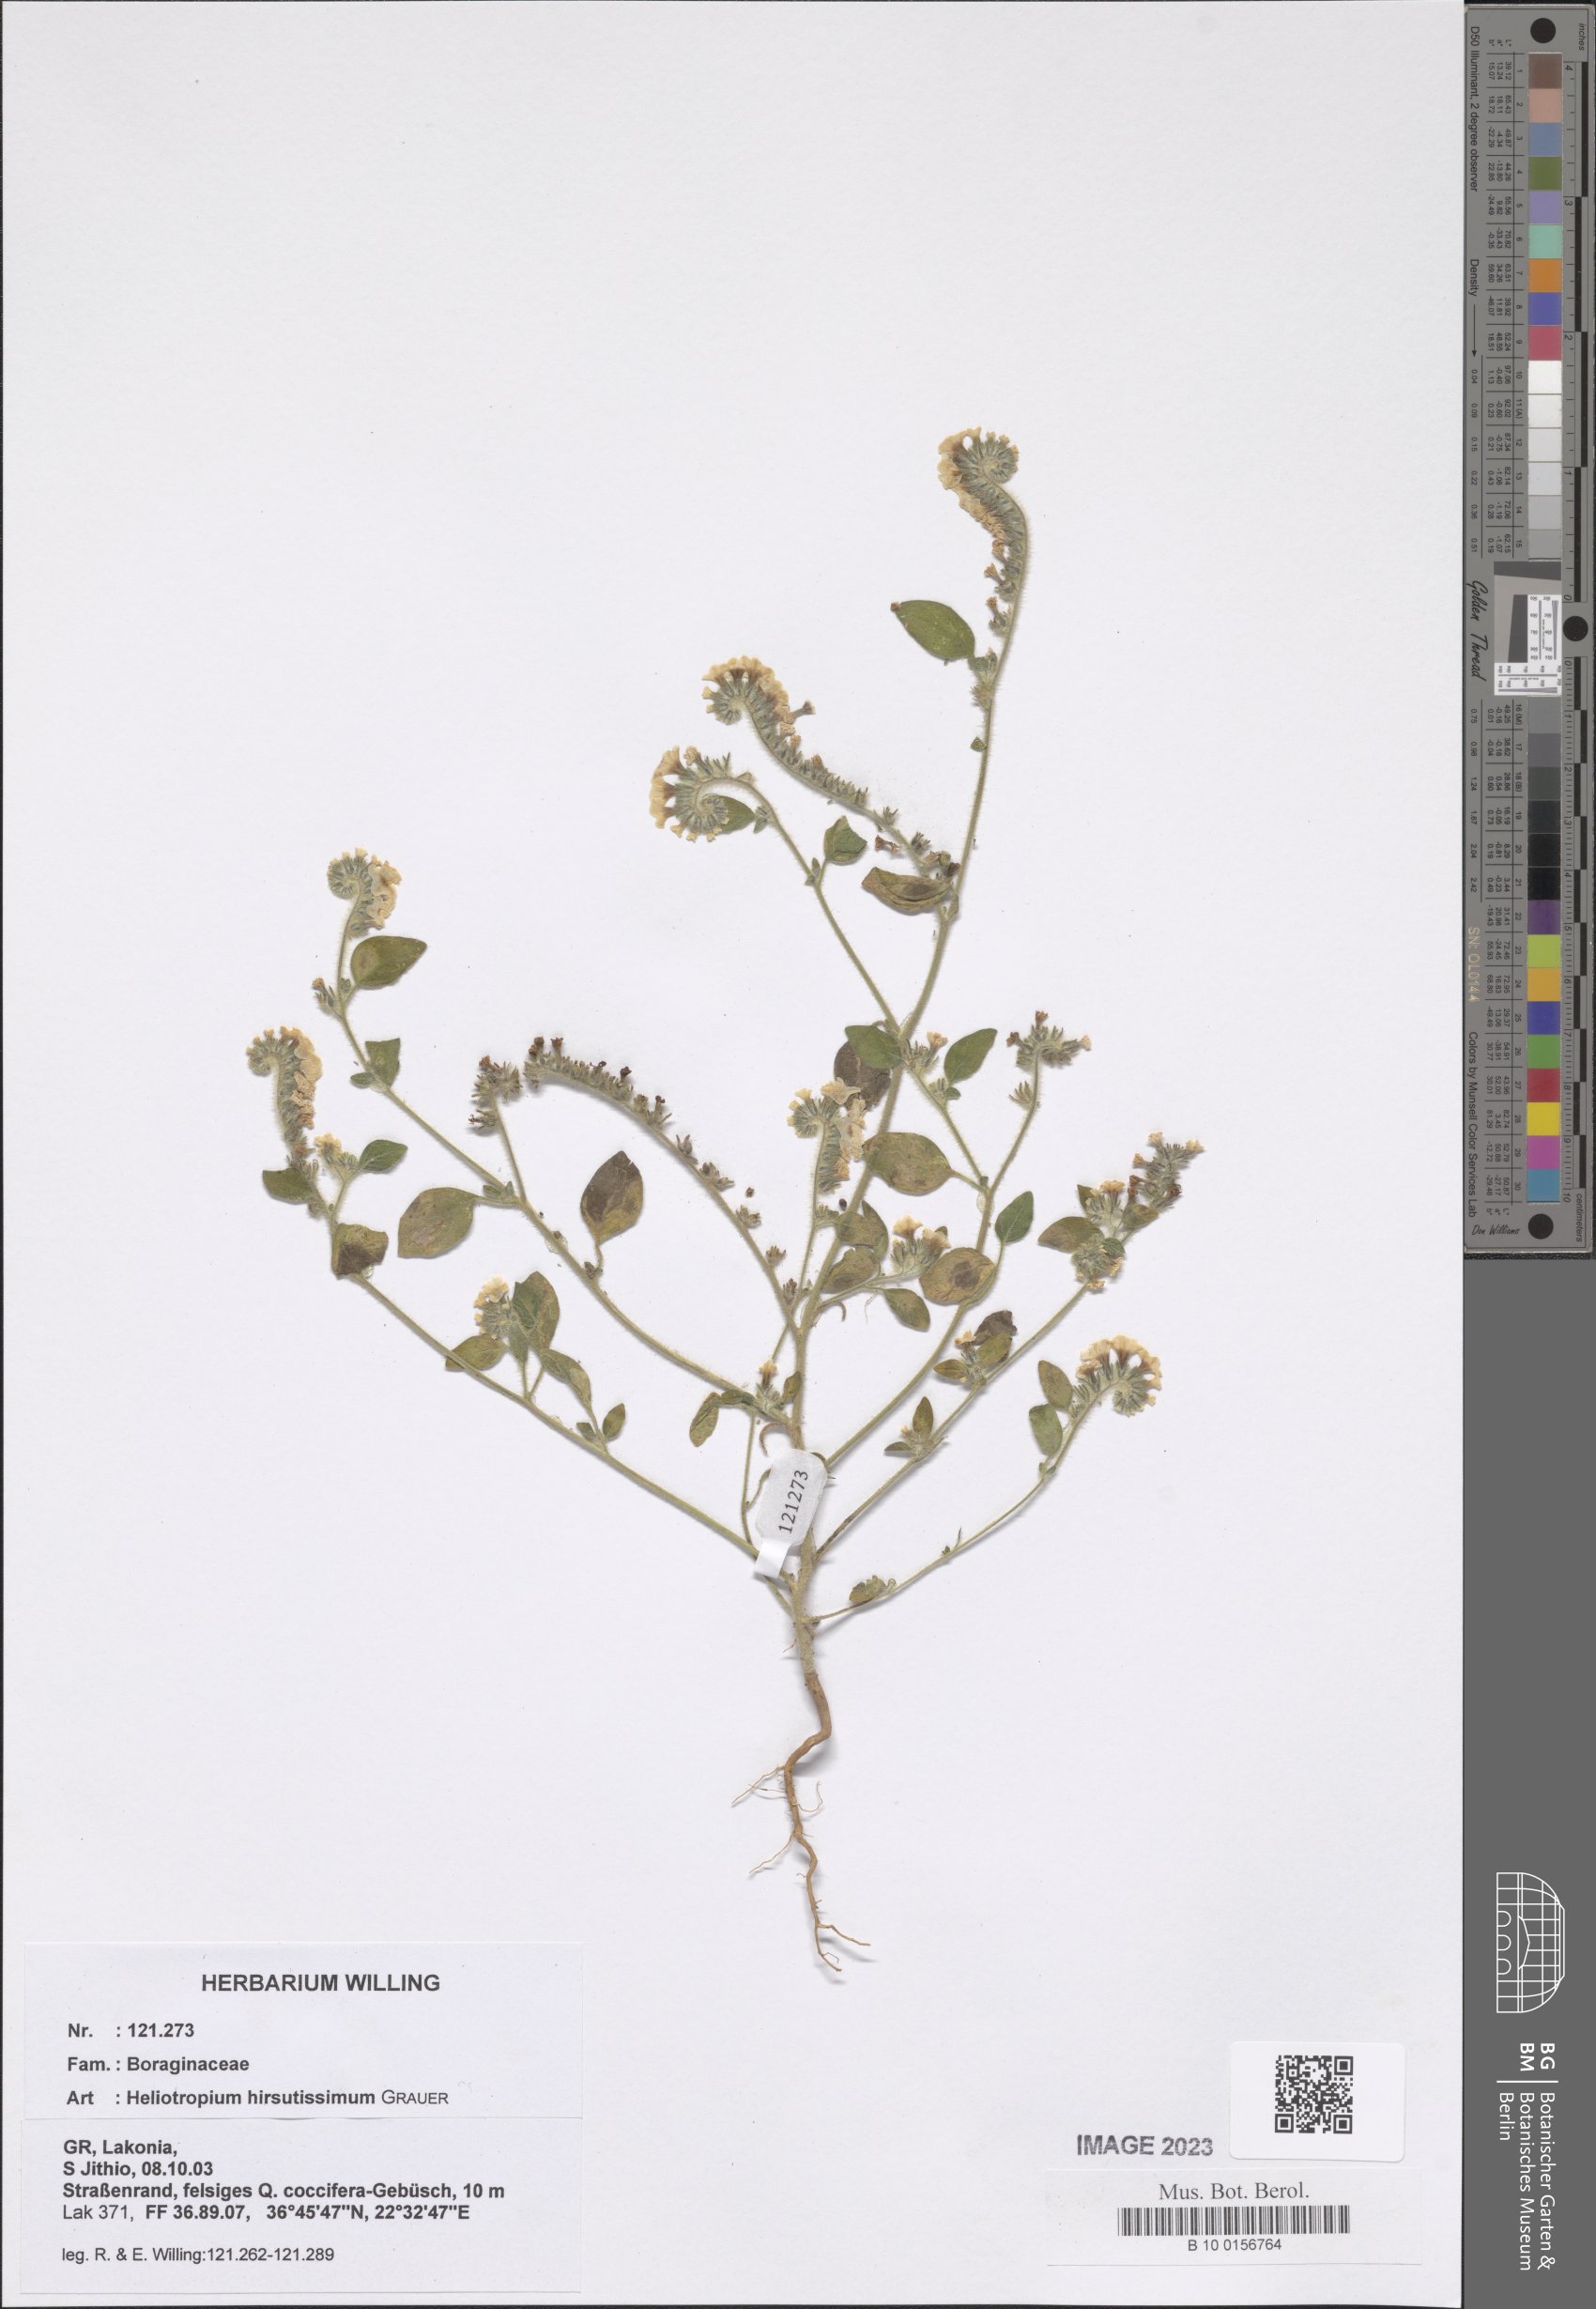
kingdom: Plantae
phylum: Tracheophyta
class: Magnoliopsida
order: Boraginales
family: Heliotropiaceae
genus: Heliotropium
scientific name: Heliotropium hirsutissimum
